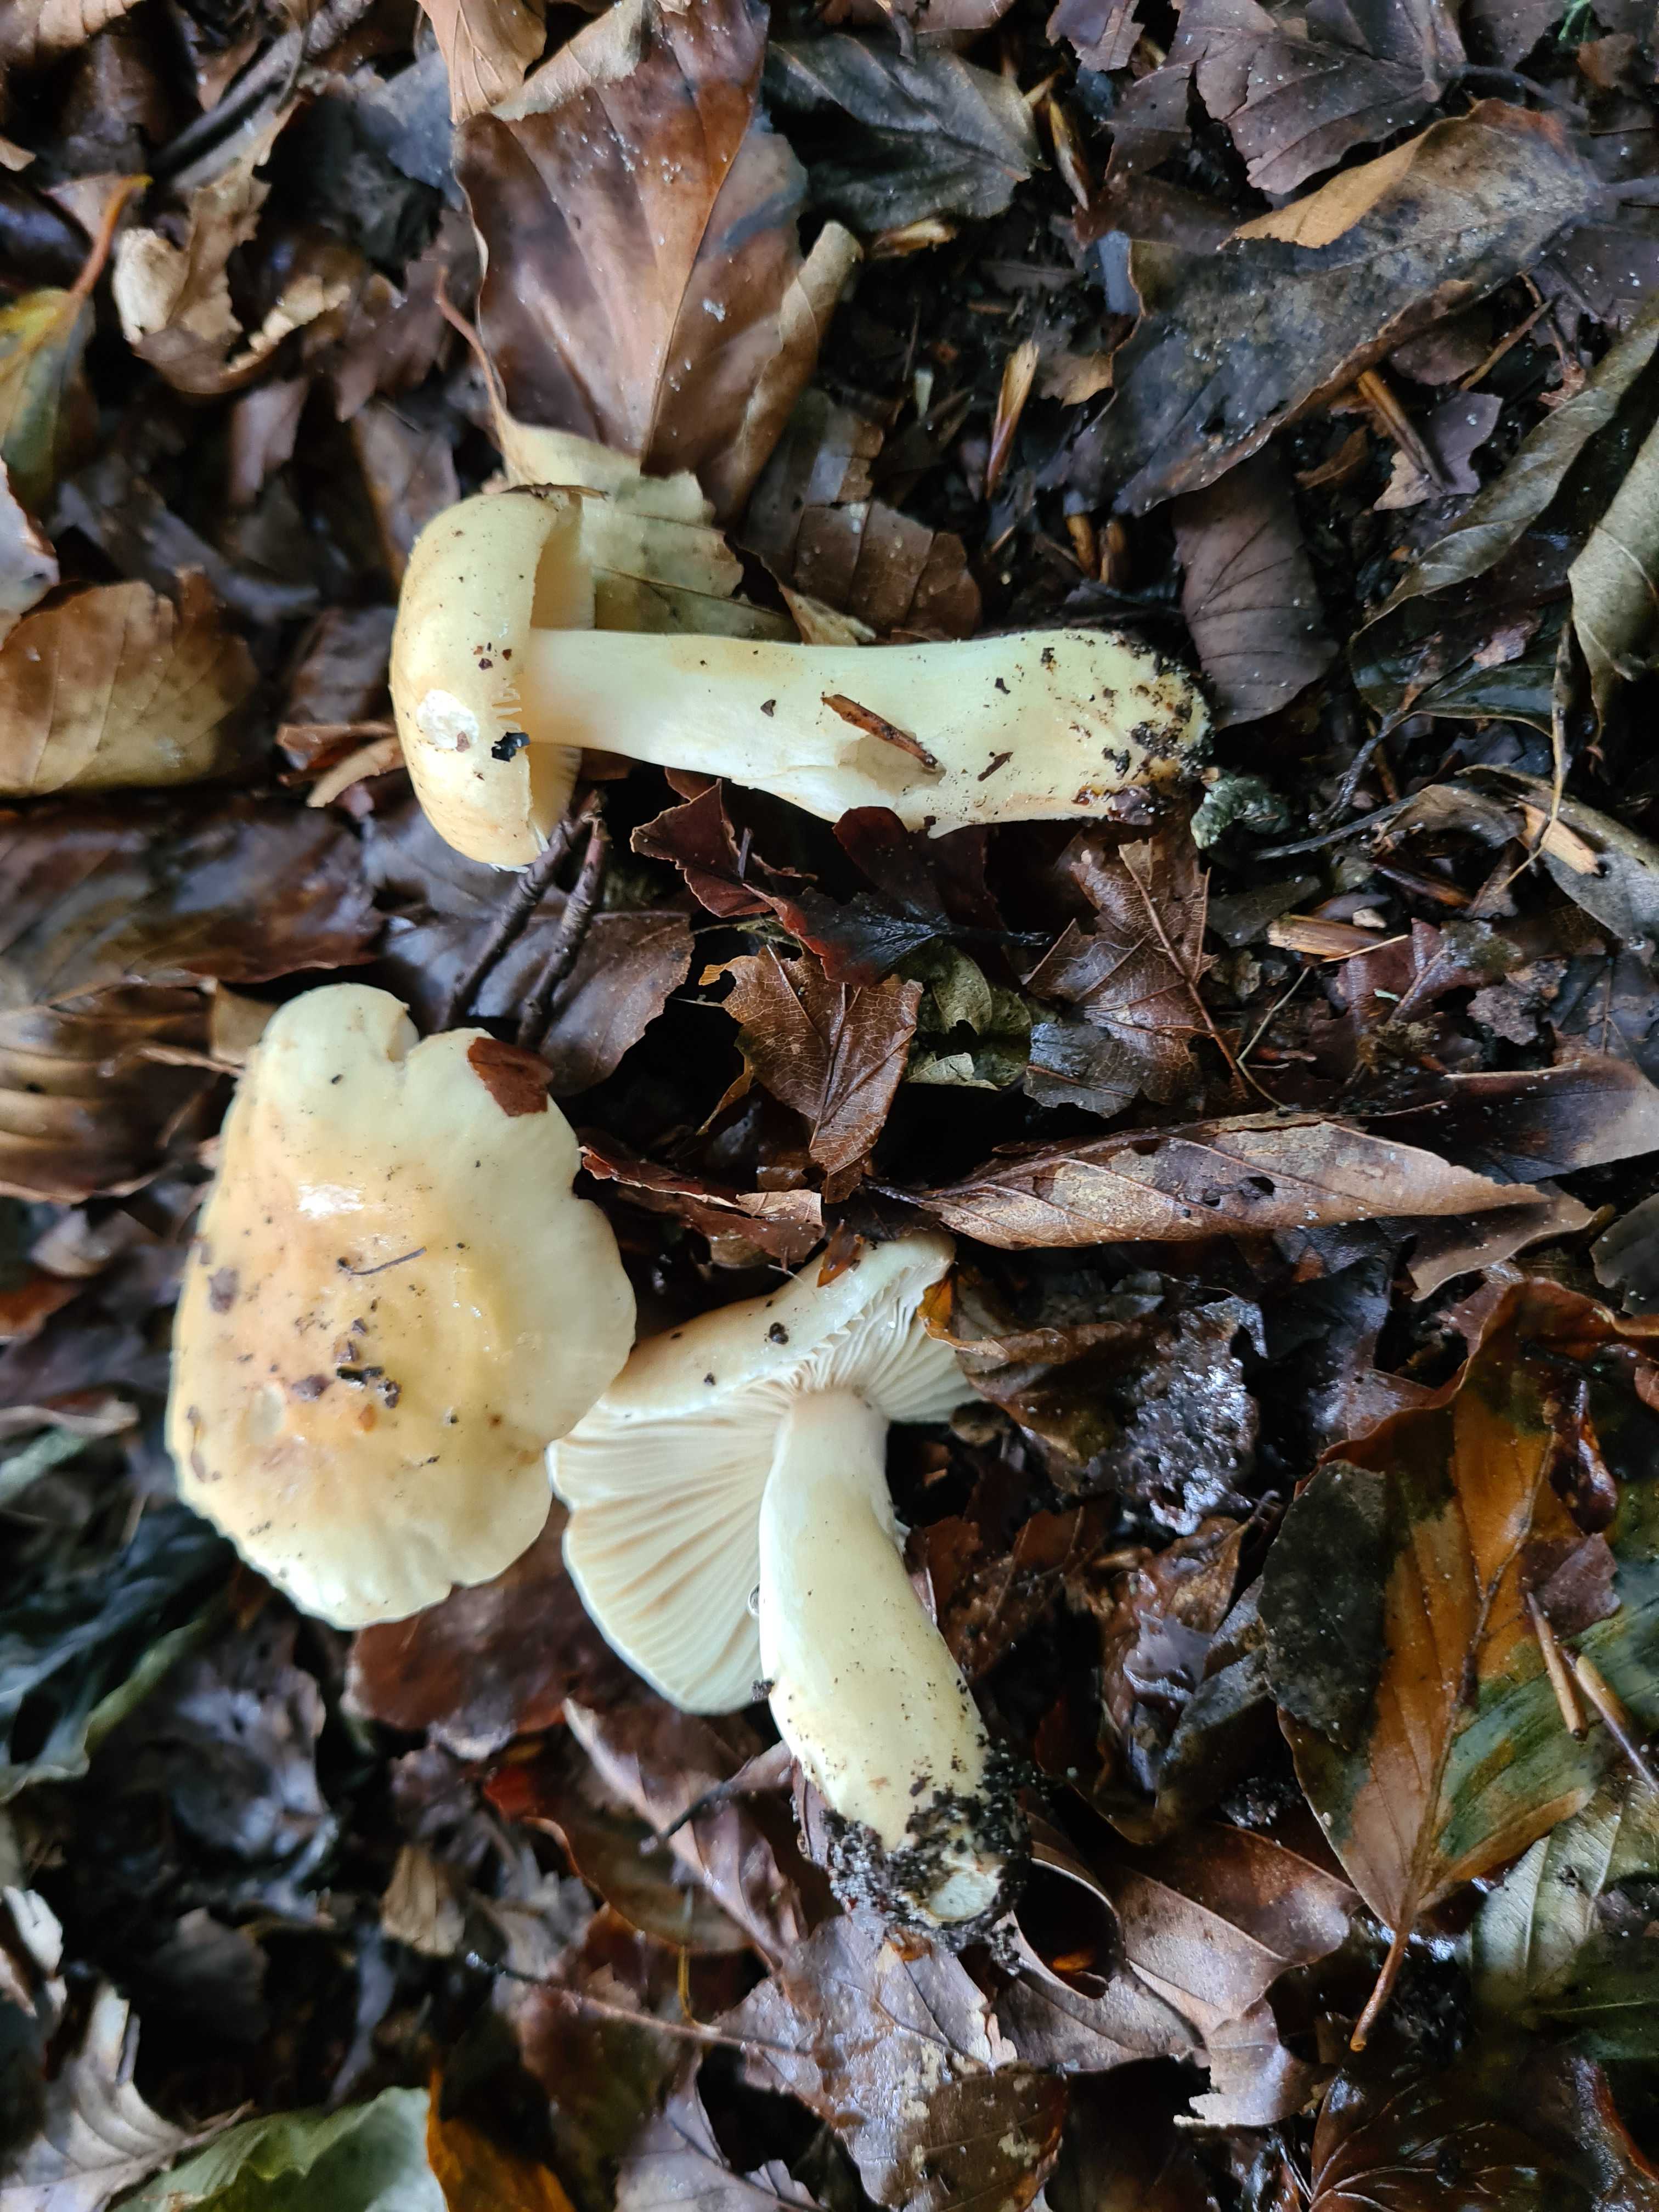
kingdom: Fungi
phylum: Basidiomycota
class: Agaricomycetes
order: Russulales
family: Russulaceae
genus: Russula
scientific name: Russula fellea
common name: galde-skørhat
